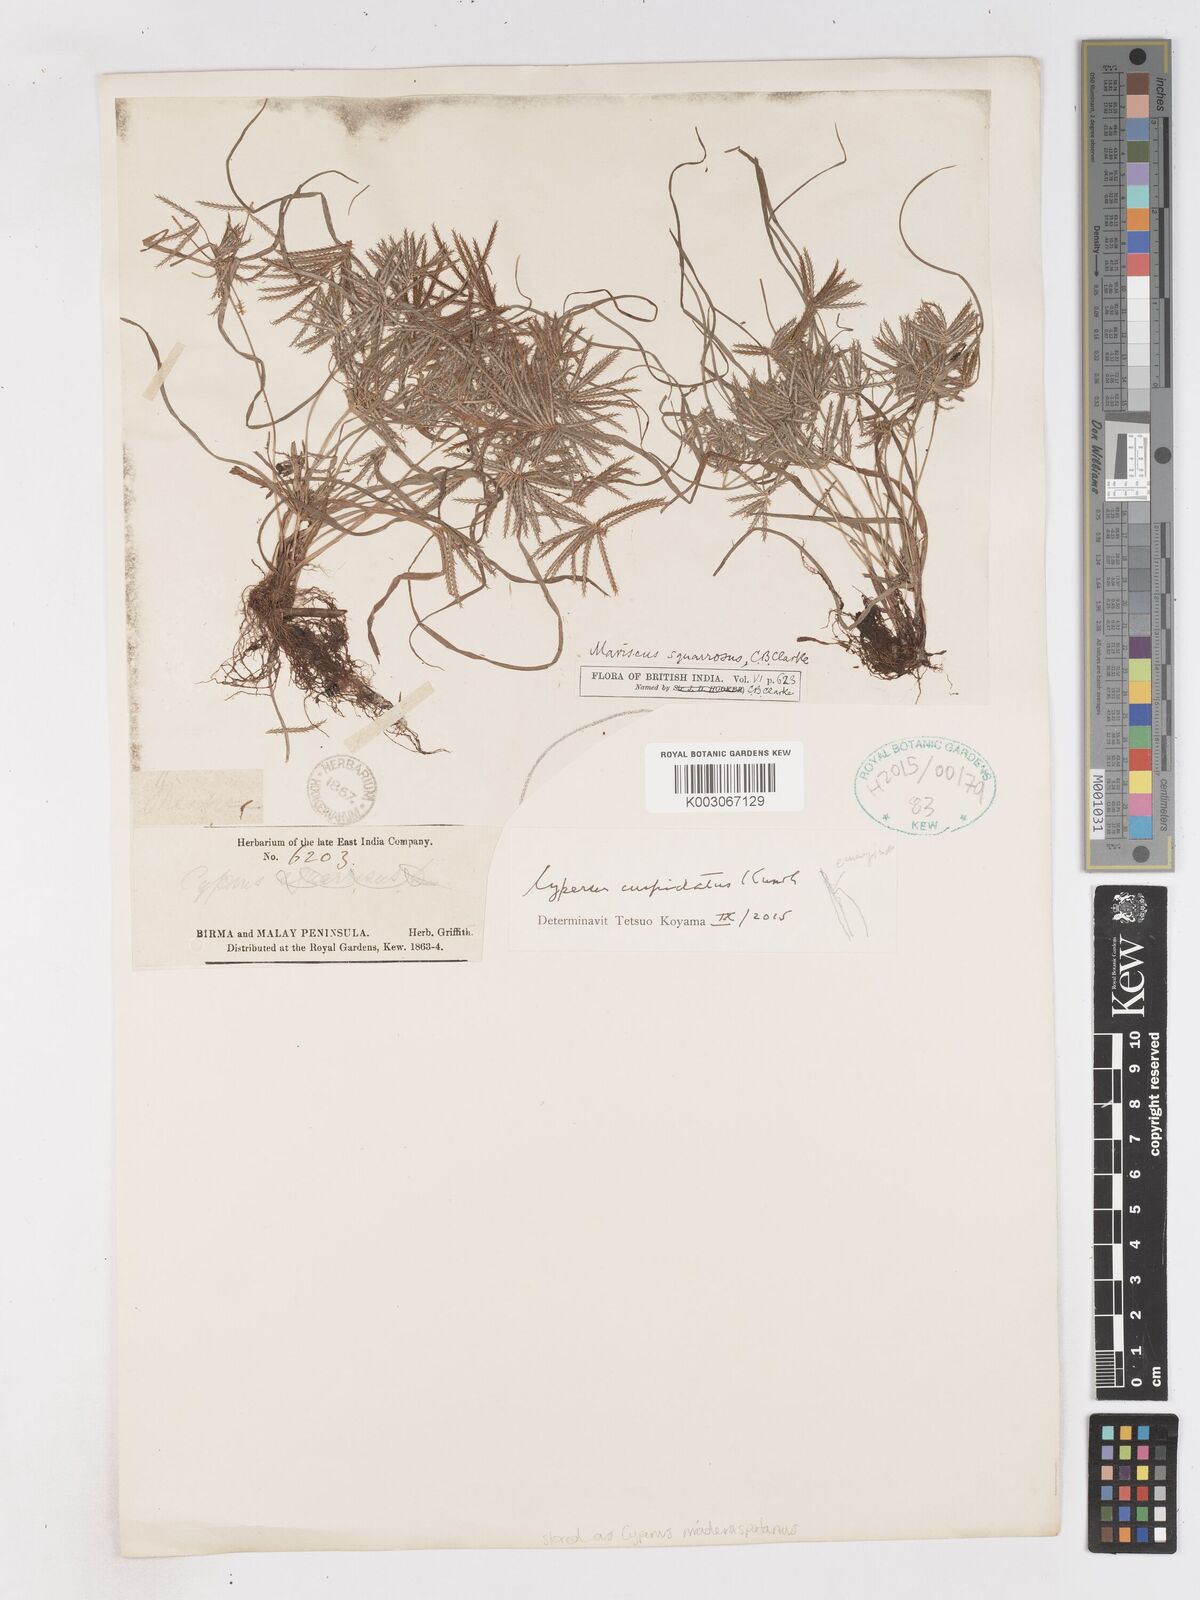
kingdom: Plantae
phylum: Tracheophyta
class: Liliopsida
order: Poales
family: Cyperaceae
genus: Cyperus
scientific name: Cyperus cuspidatus
